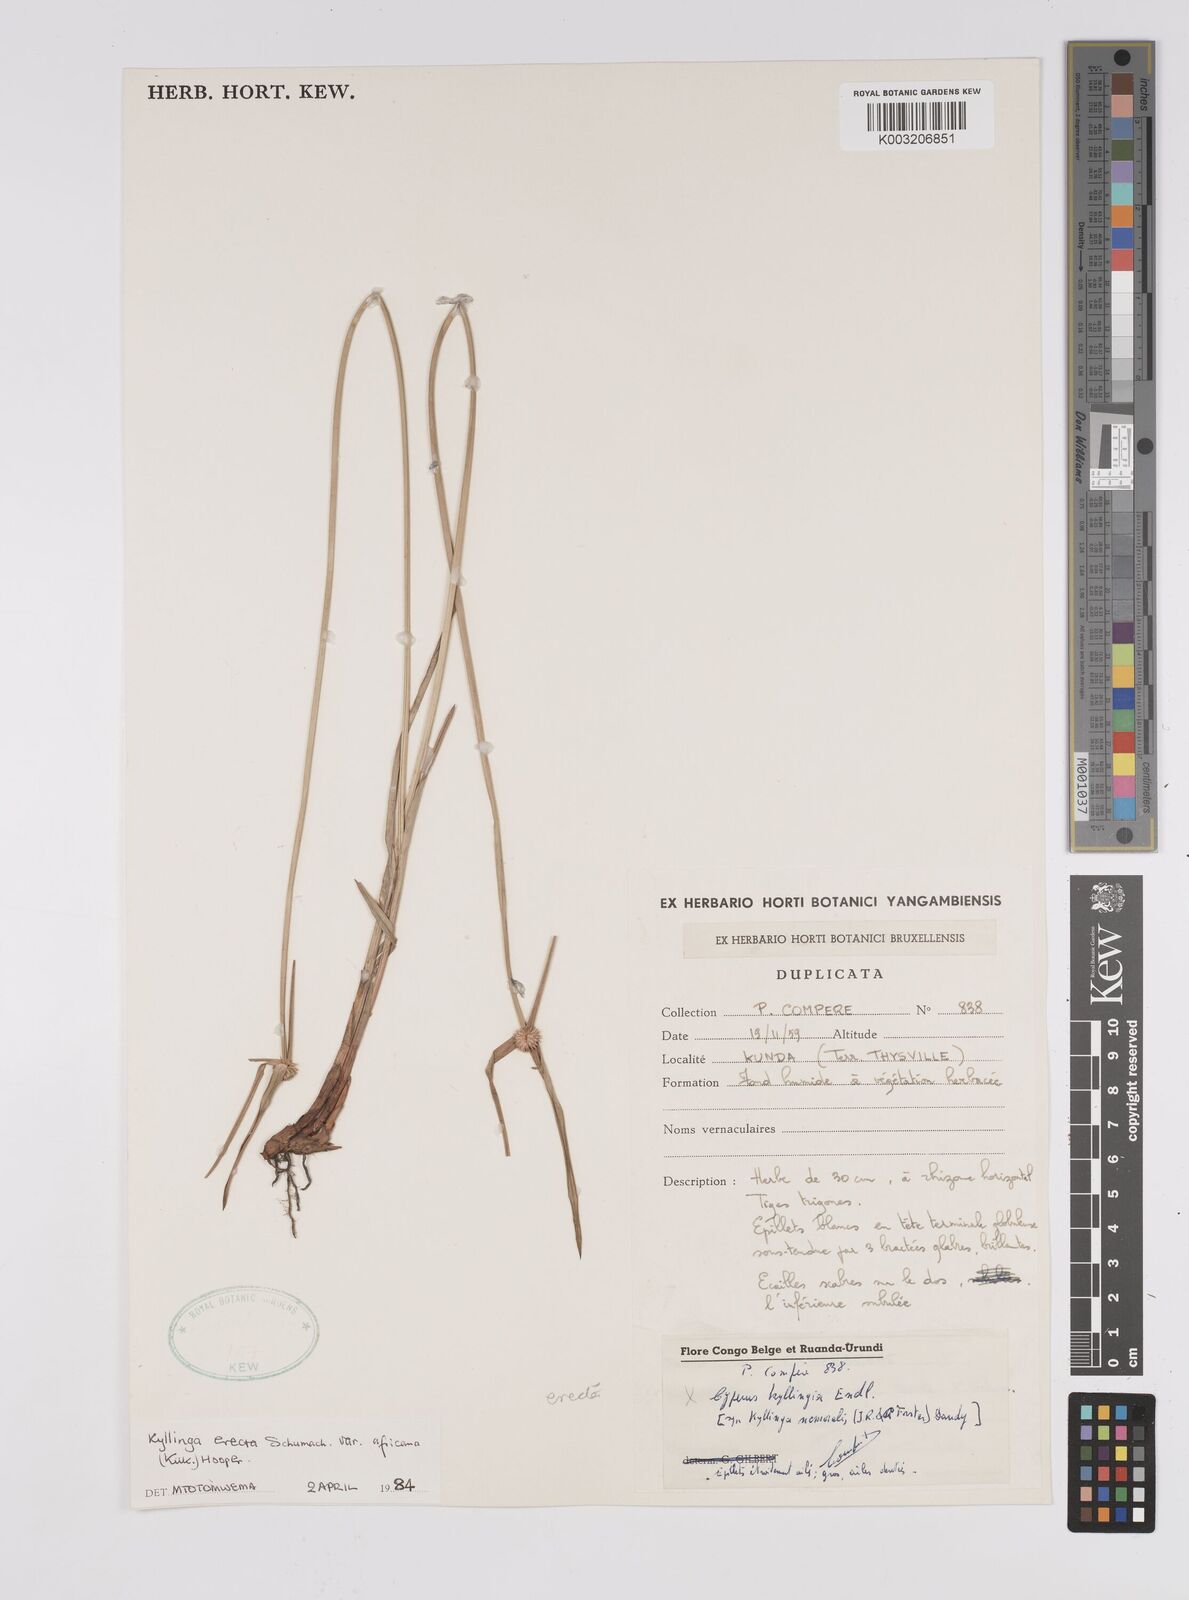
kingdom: Plantae
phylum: Tracheophyta
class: Liliopsida
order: Poales
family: Cyperaceae
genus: Cyperus
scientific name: Cyperus erectus
